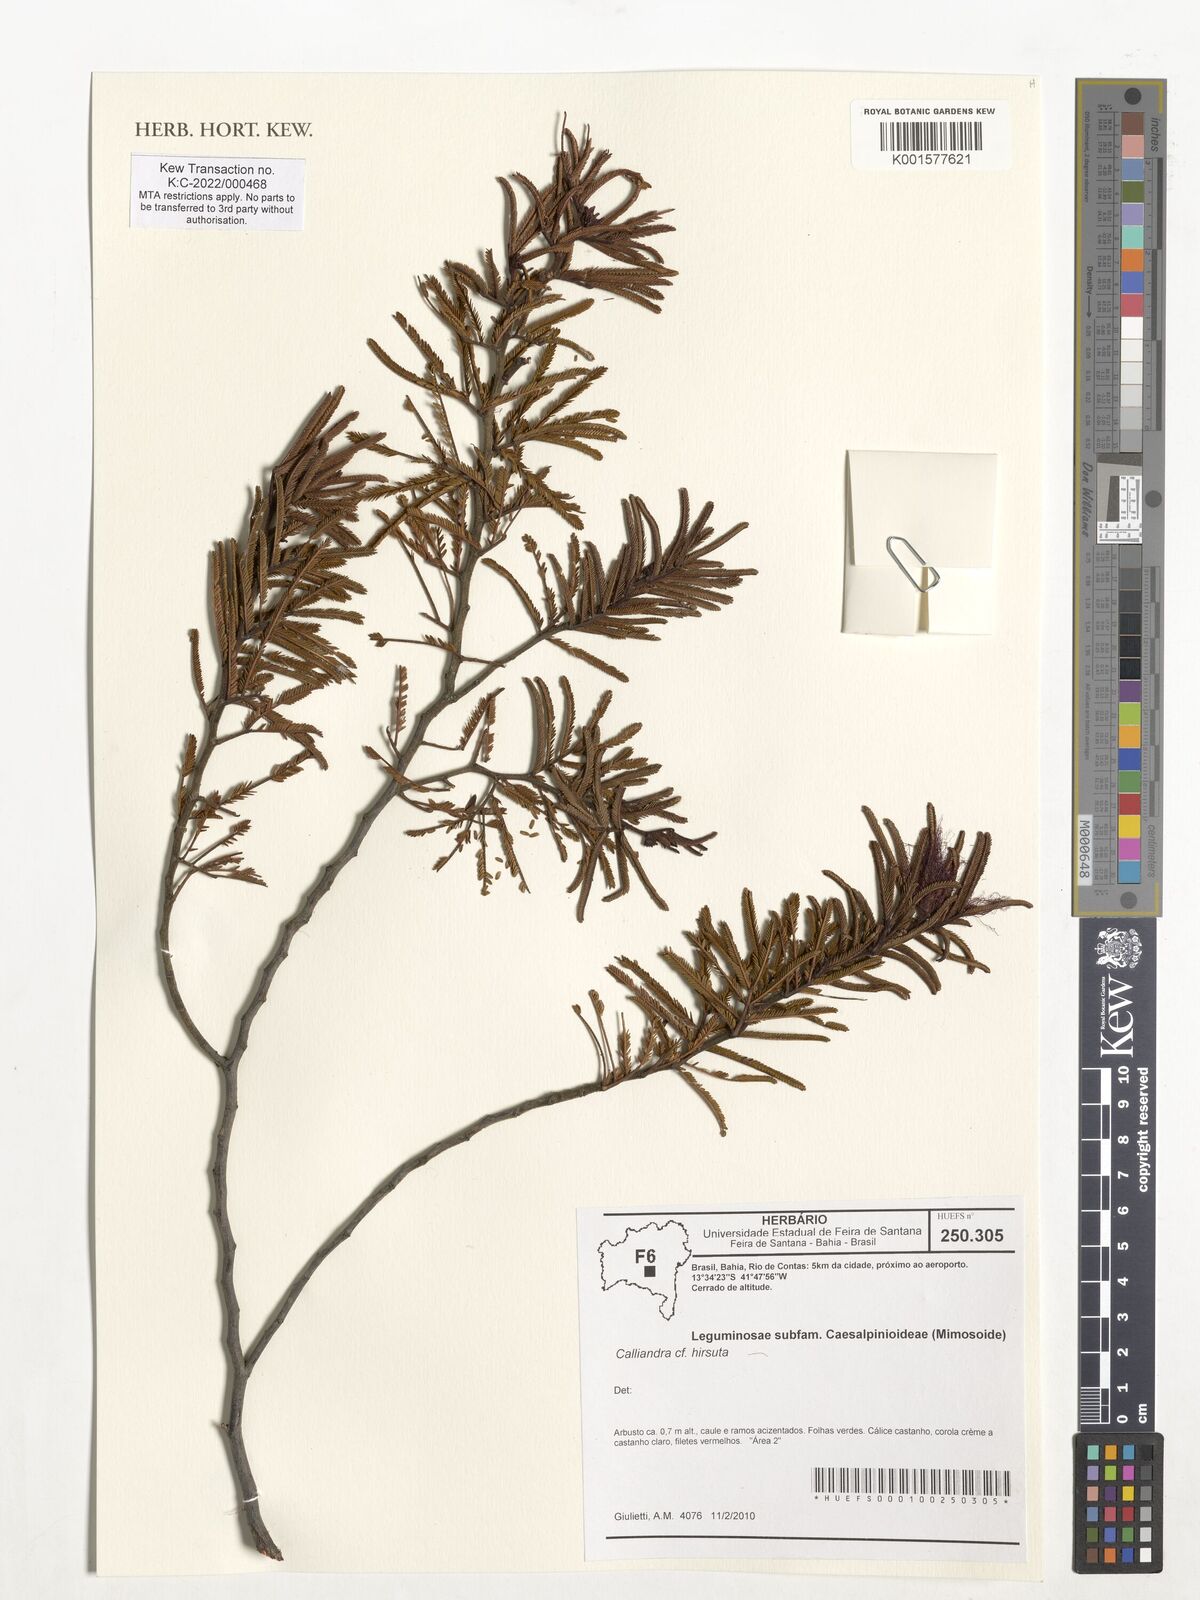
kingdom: Plantae
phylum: Tracheophyta
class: Magnoliopsida
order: Fabales
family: Fabaceae
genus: Calliandra
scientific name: Calliandra hirsuta
